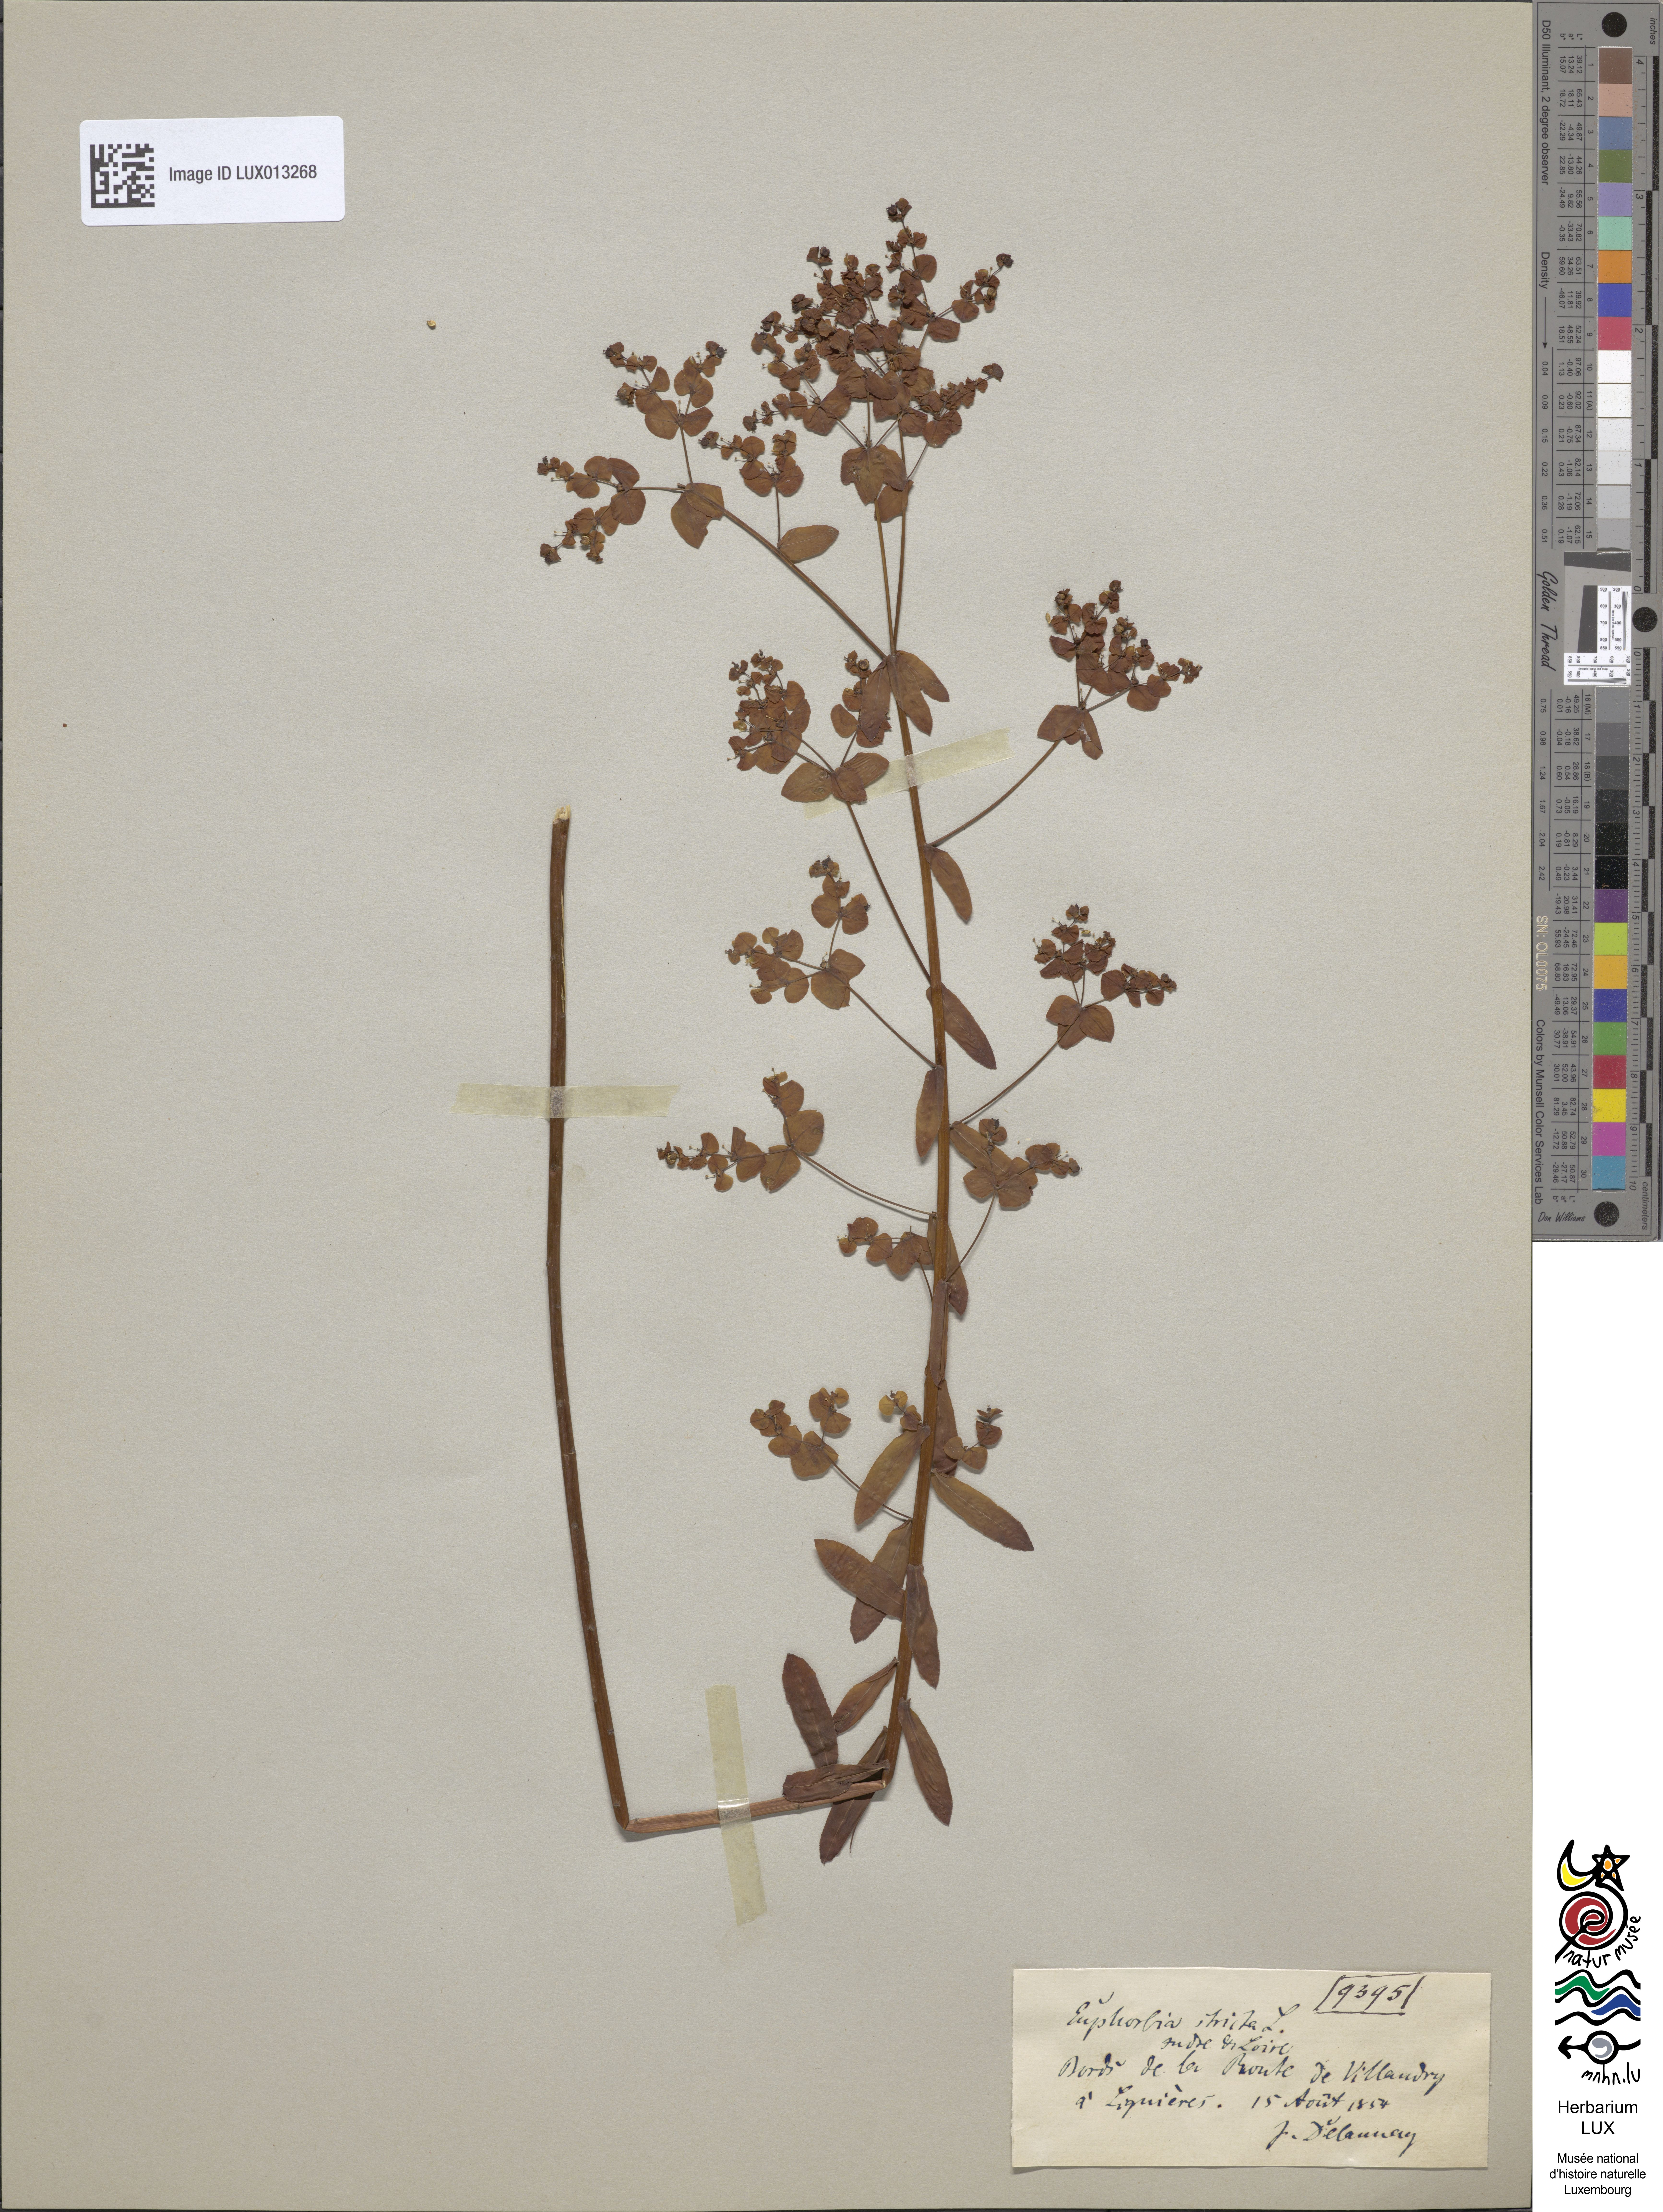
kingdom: Plantae
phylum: Tracheophyta
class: Magnoliopsida
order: Malpighiales
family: Euphorbiaceae
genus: Euphorbia
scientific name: Euphorbia stricta
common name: Upright spurge
